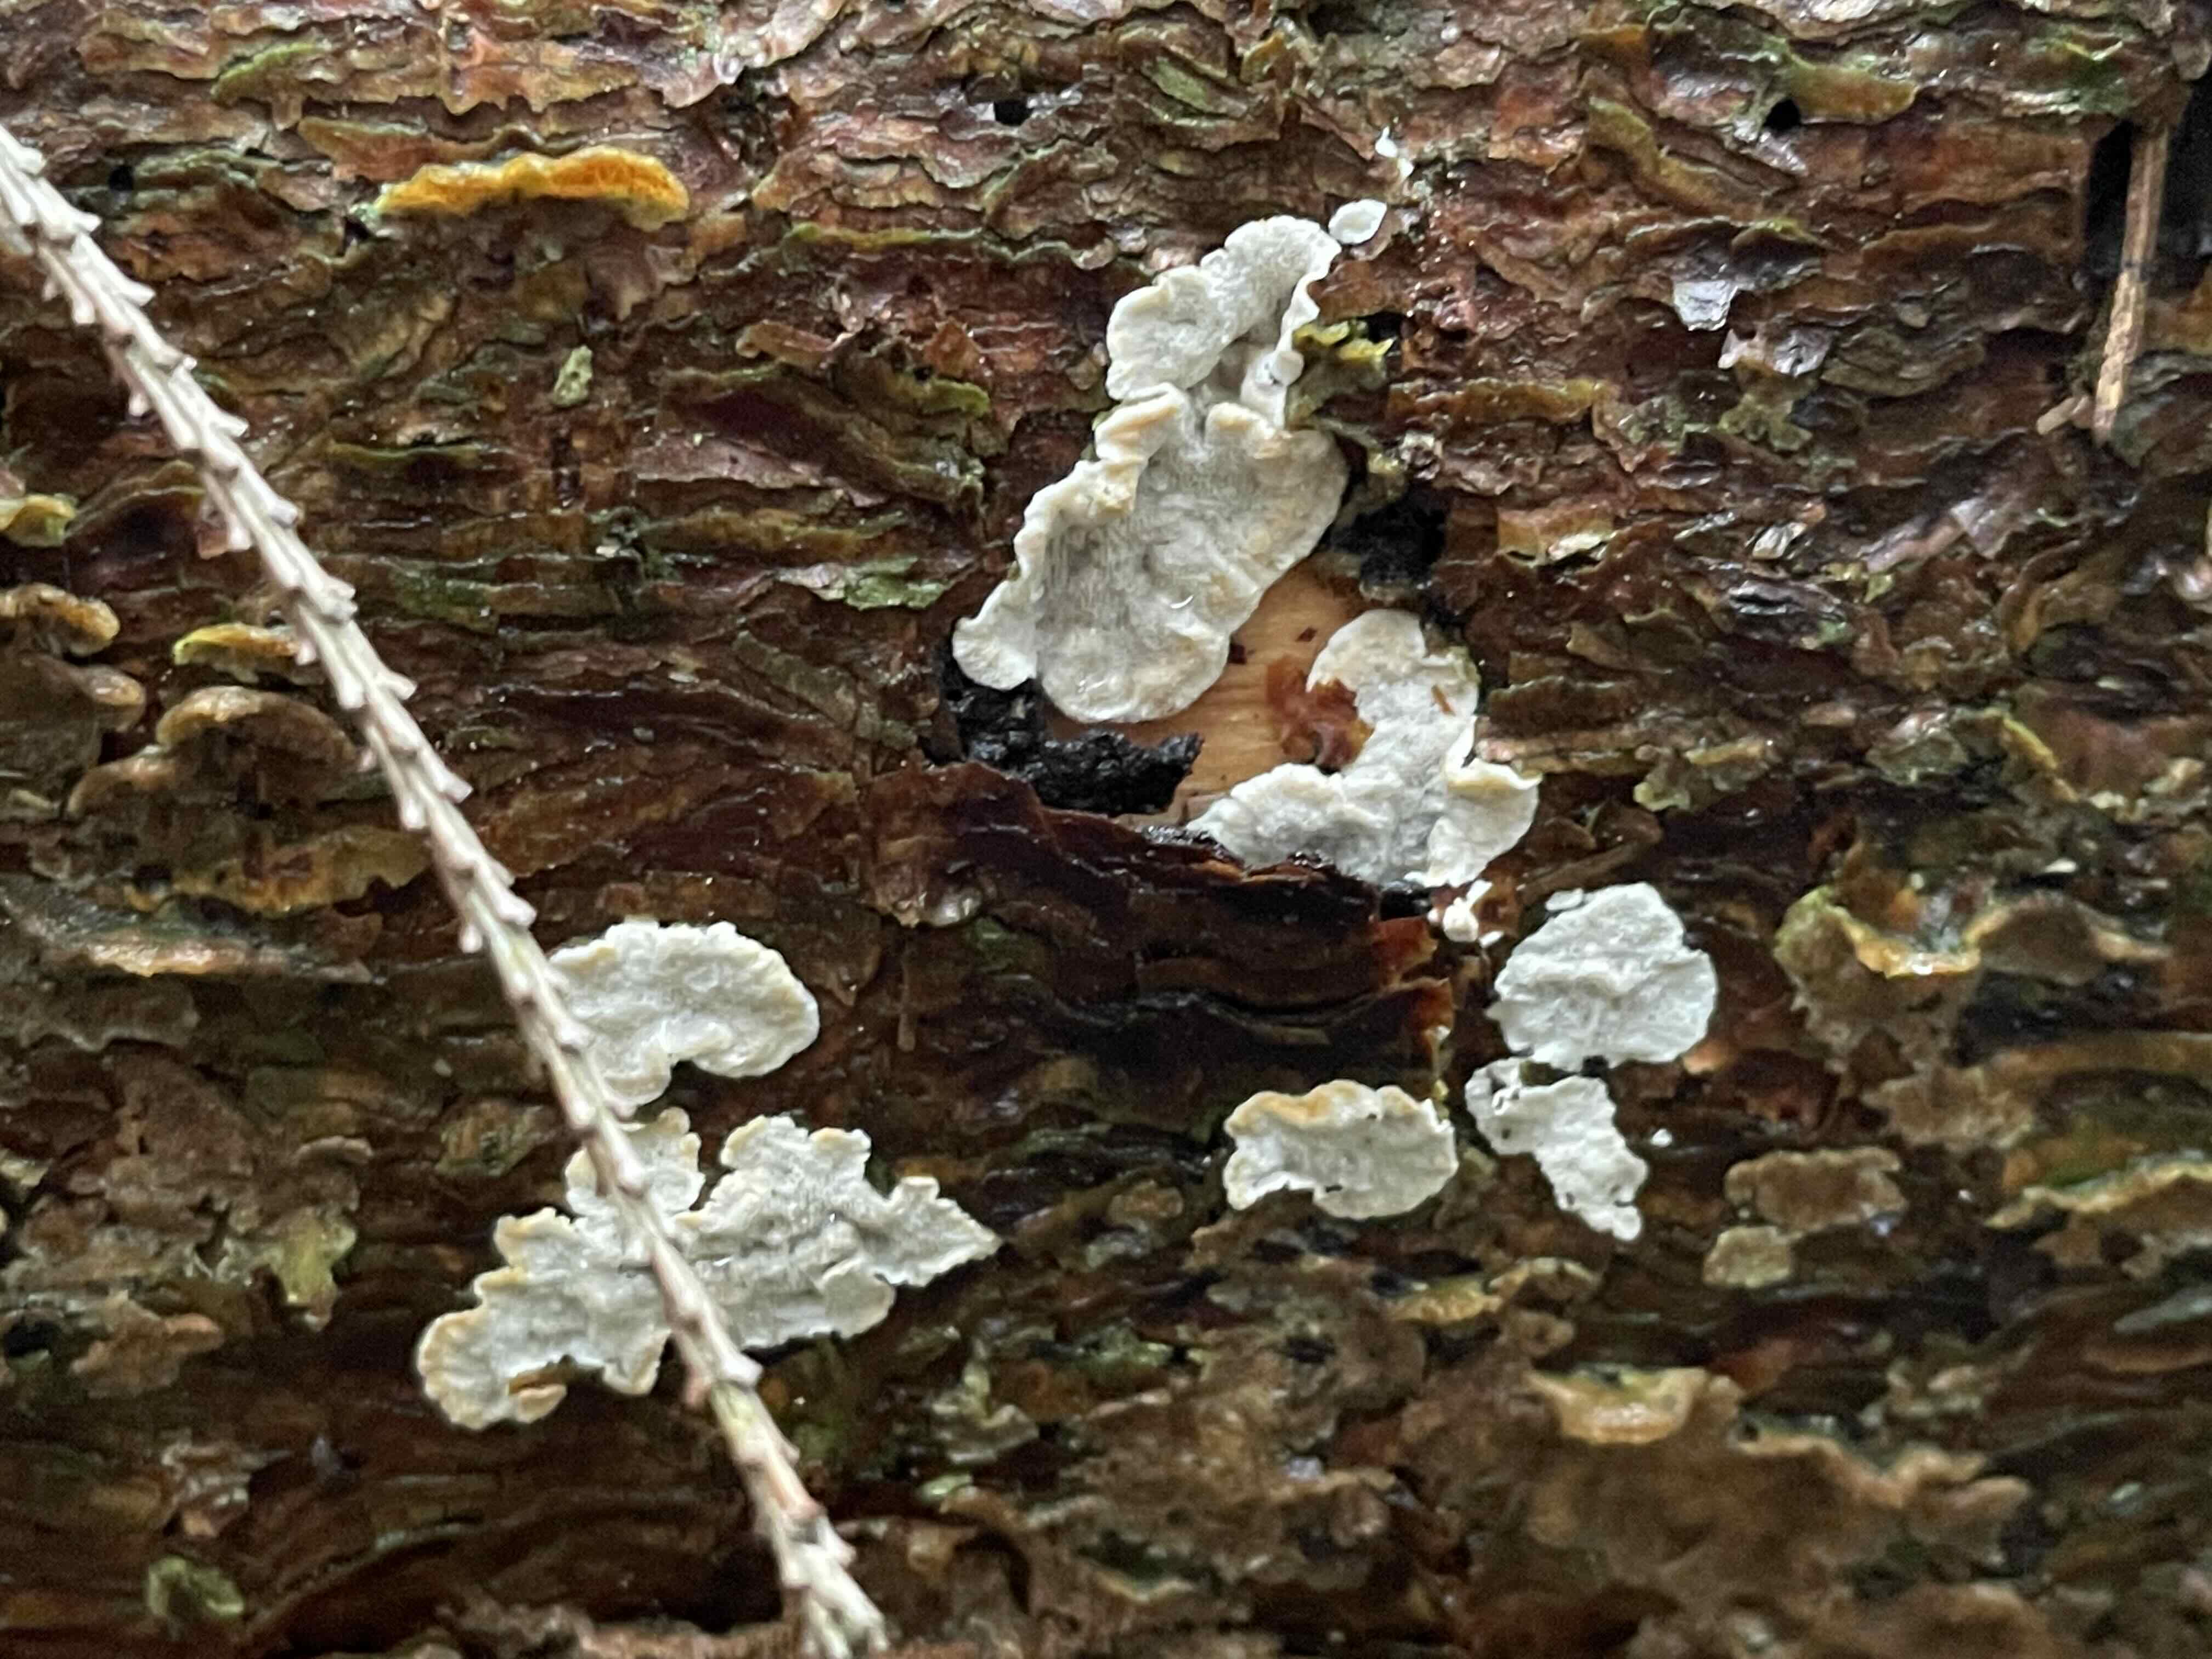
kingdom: Fungi
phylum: Basidiomycota
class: Agaricomycetes
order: Polyporales
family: Incrustoporiaceae
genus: Skeletocutis
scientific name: Skeletocutis carneogrisea
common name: rødgrå krystalporesvamp
